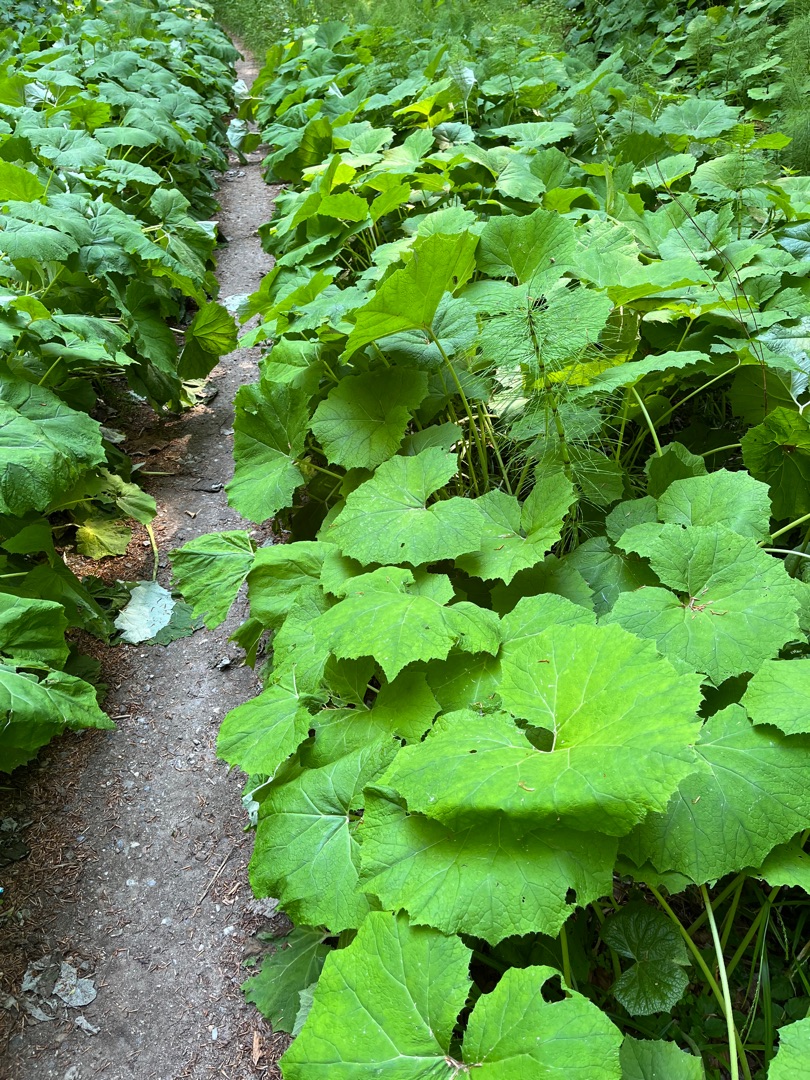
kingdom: Plantae
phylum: Tracheophyta
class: Magnoliopsida
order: Asterales
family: Asteraceae
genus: Petasites
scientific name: Petasites albus
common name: Hvid hestehov
